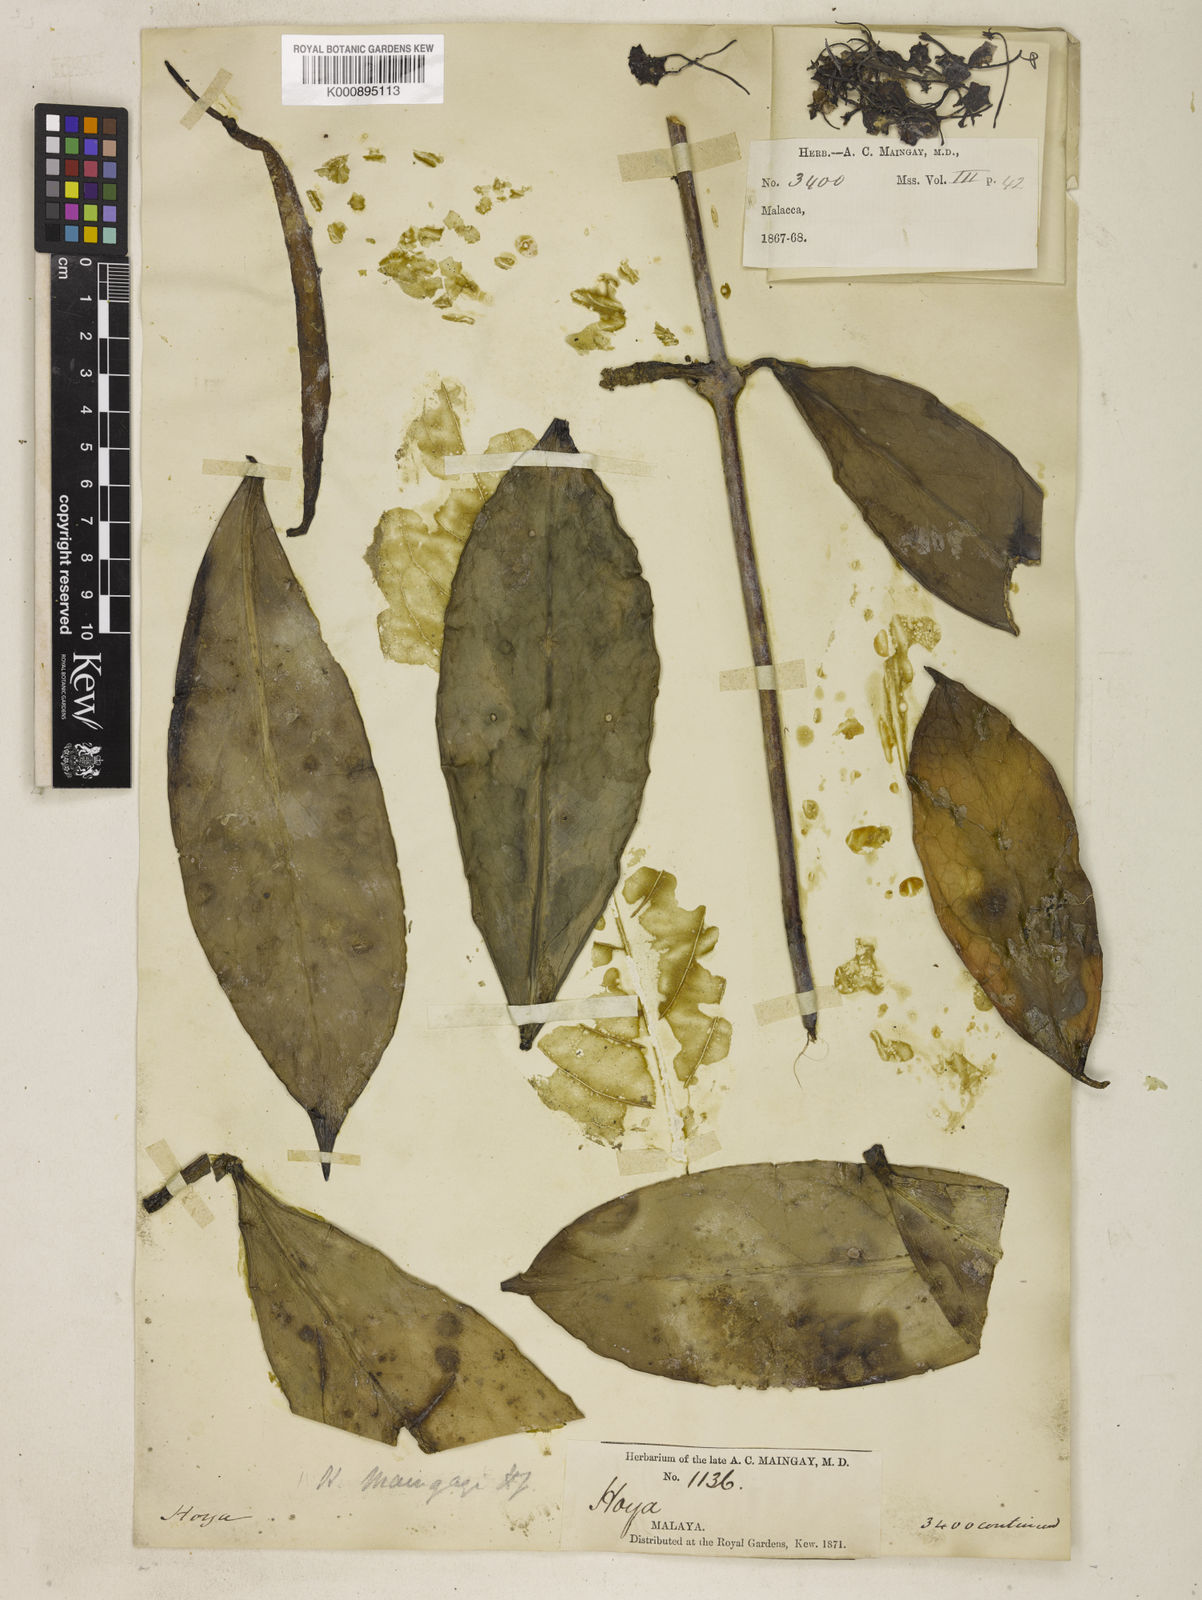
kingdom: Plantae
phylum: Tracheophyta
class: Magnoliopsida
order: Gentianales
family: Apocynaceae
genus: Hoya
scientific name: Hoya maingayi
